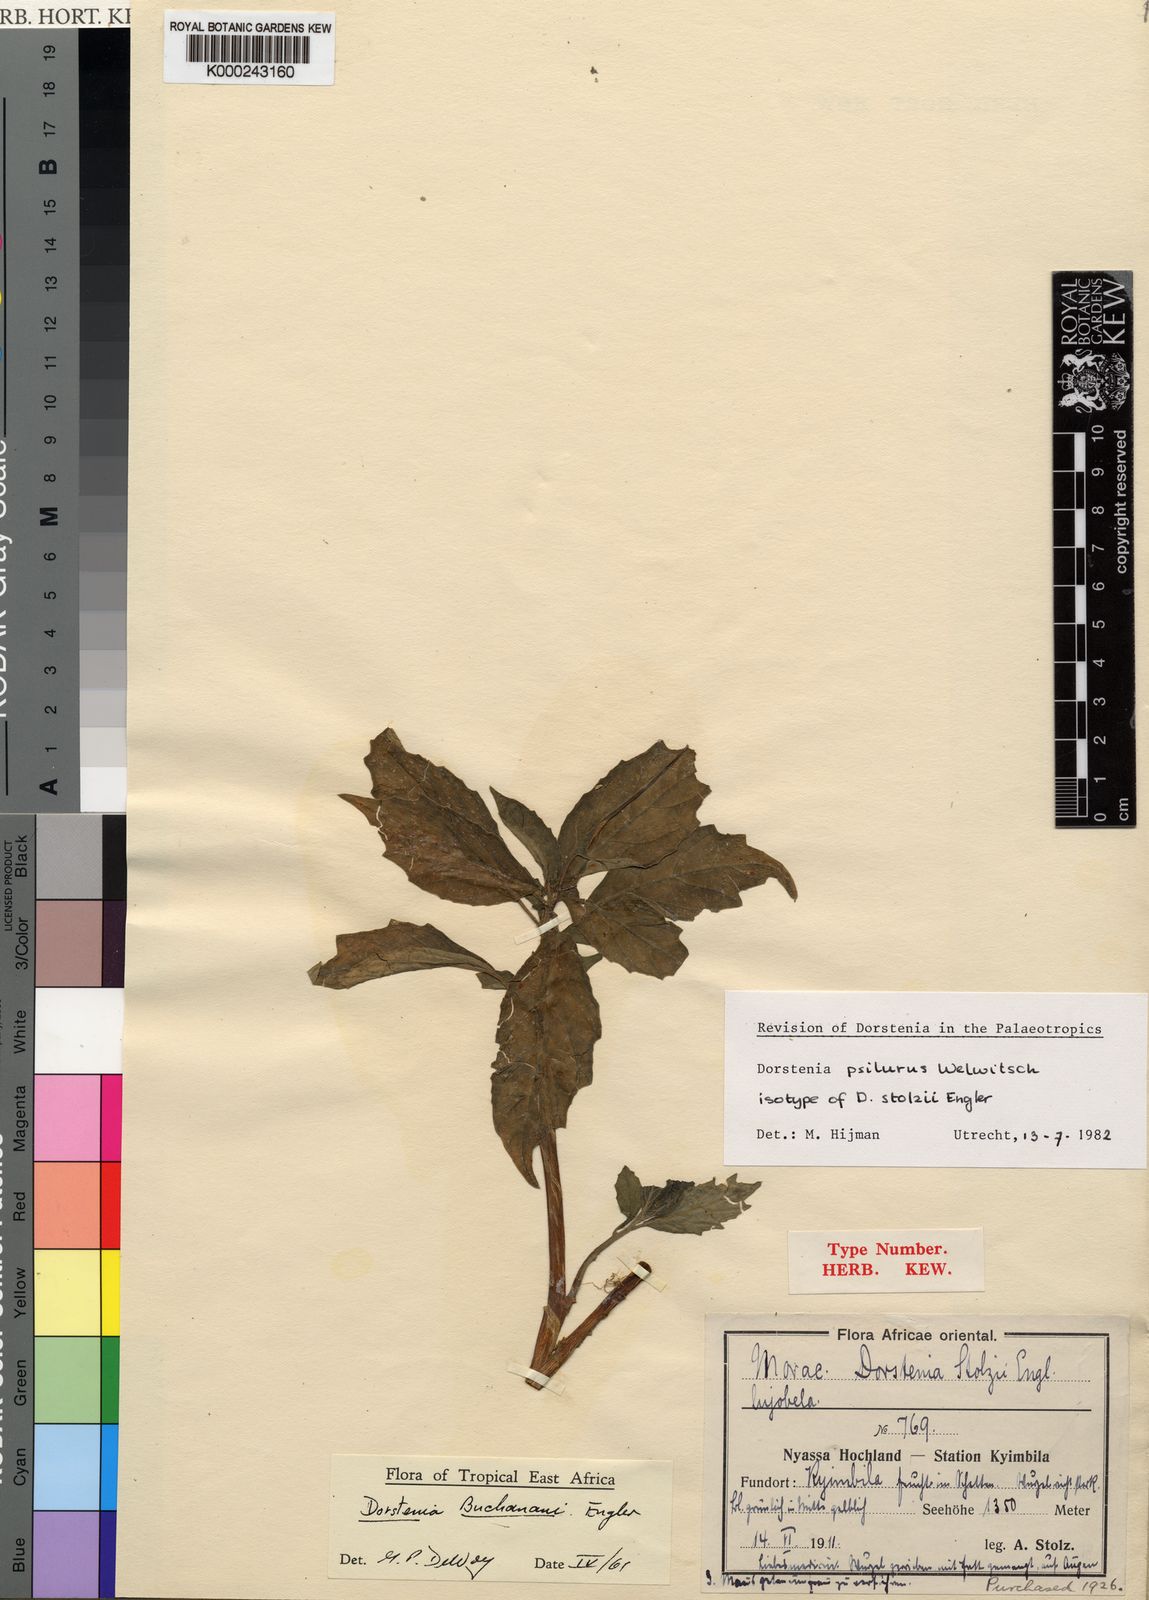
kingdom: Plantae
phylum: Tracheophyta
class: Magnoliopsida
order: Rosales
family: Moraceae
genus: Dorstenia
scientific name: Dorstenia psilurus
